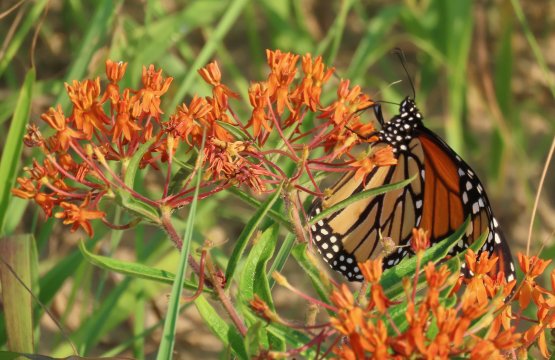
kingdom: Animalia
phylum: Arthropoda
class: Insecta
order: Lepidoptera
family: Nymphalidae
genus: Danaus
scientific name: Danaus plexippus
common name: Monarch
